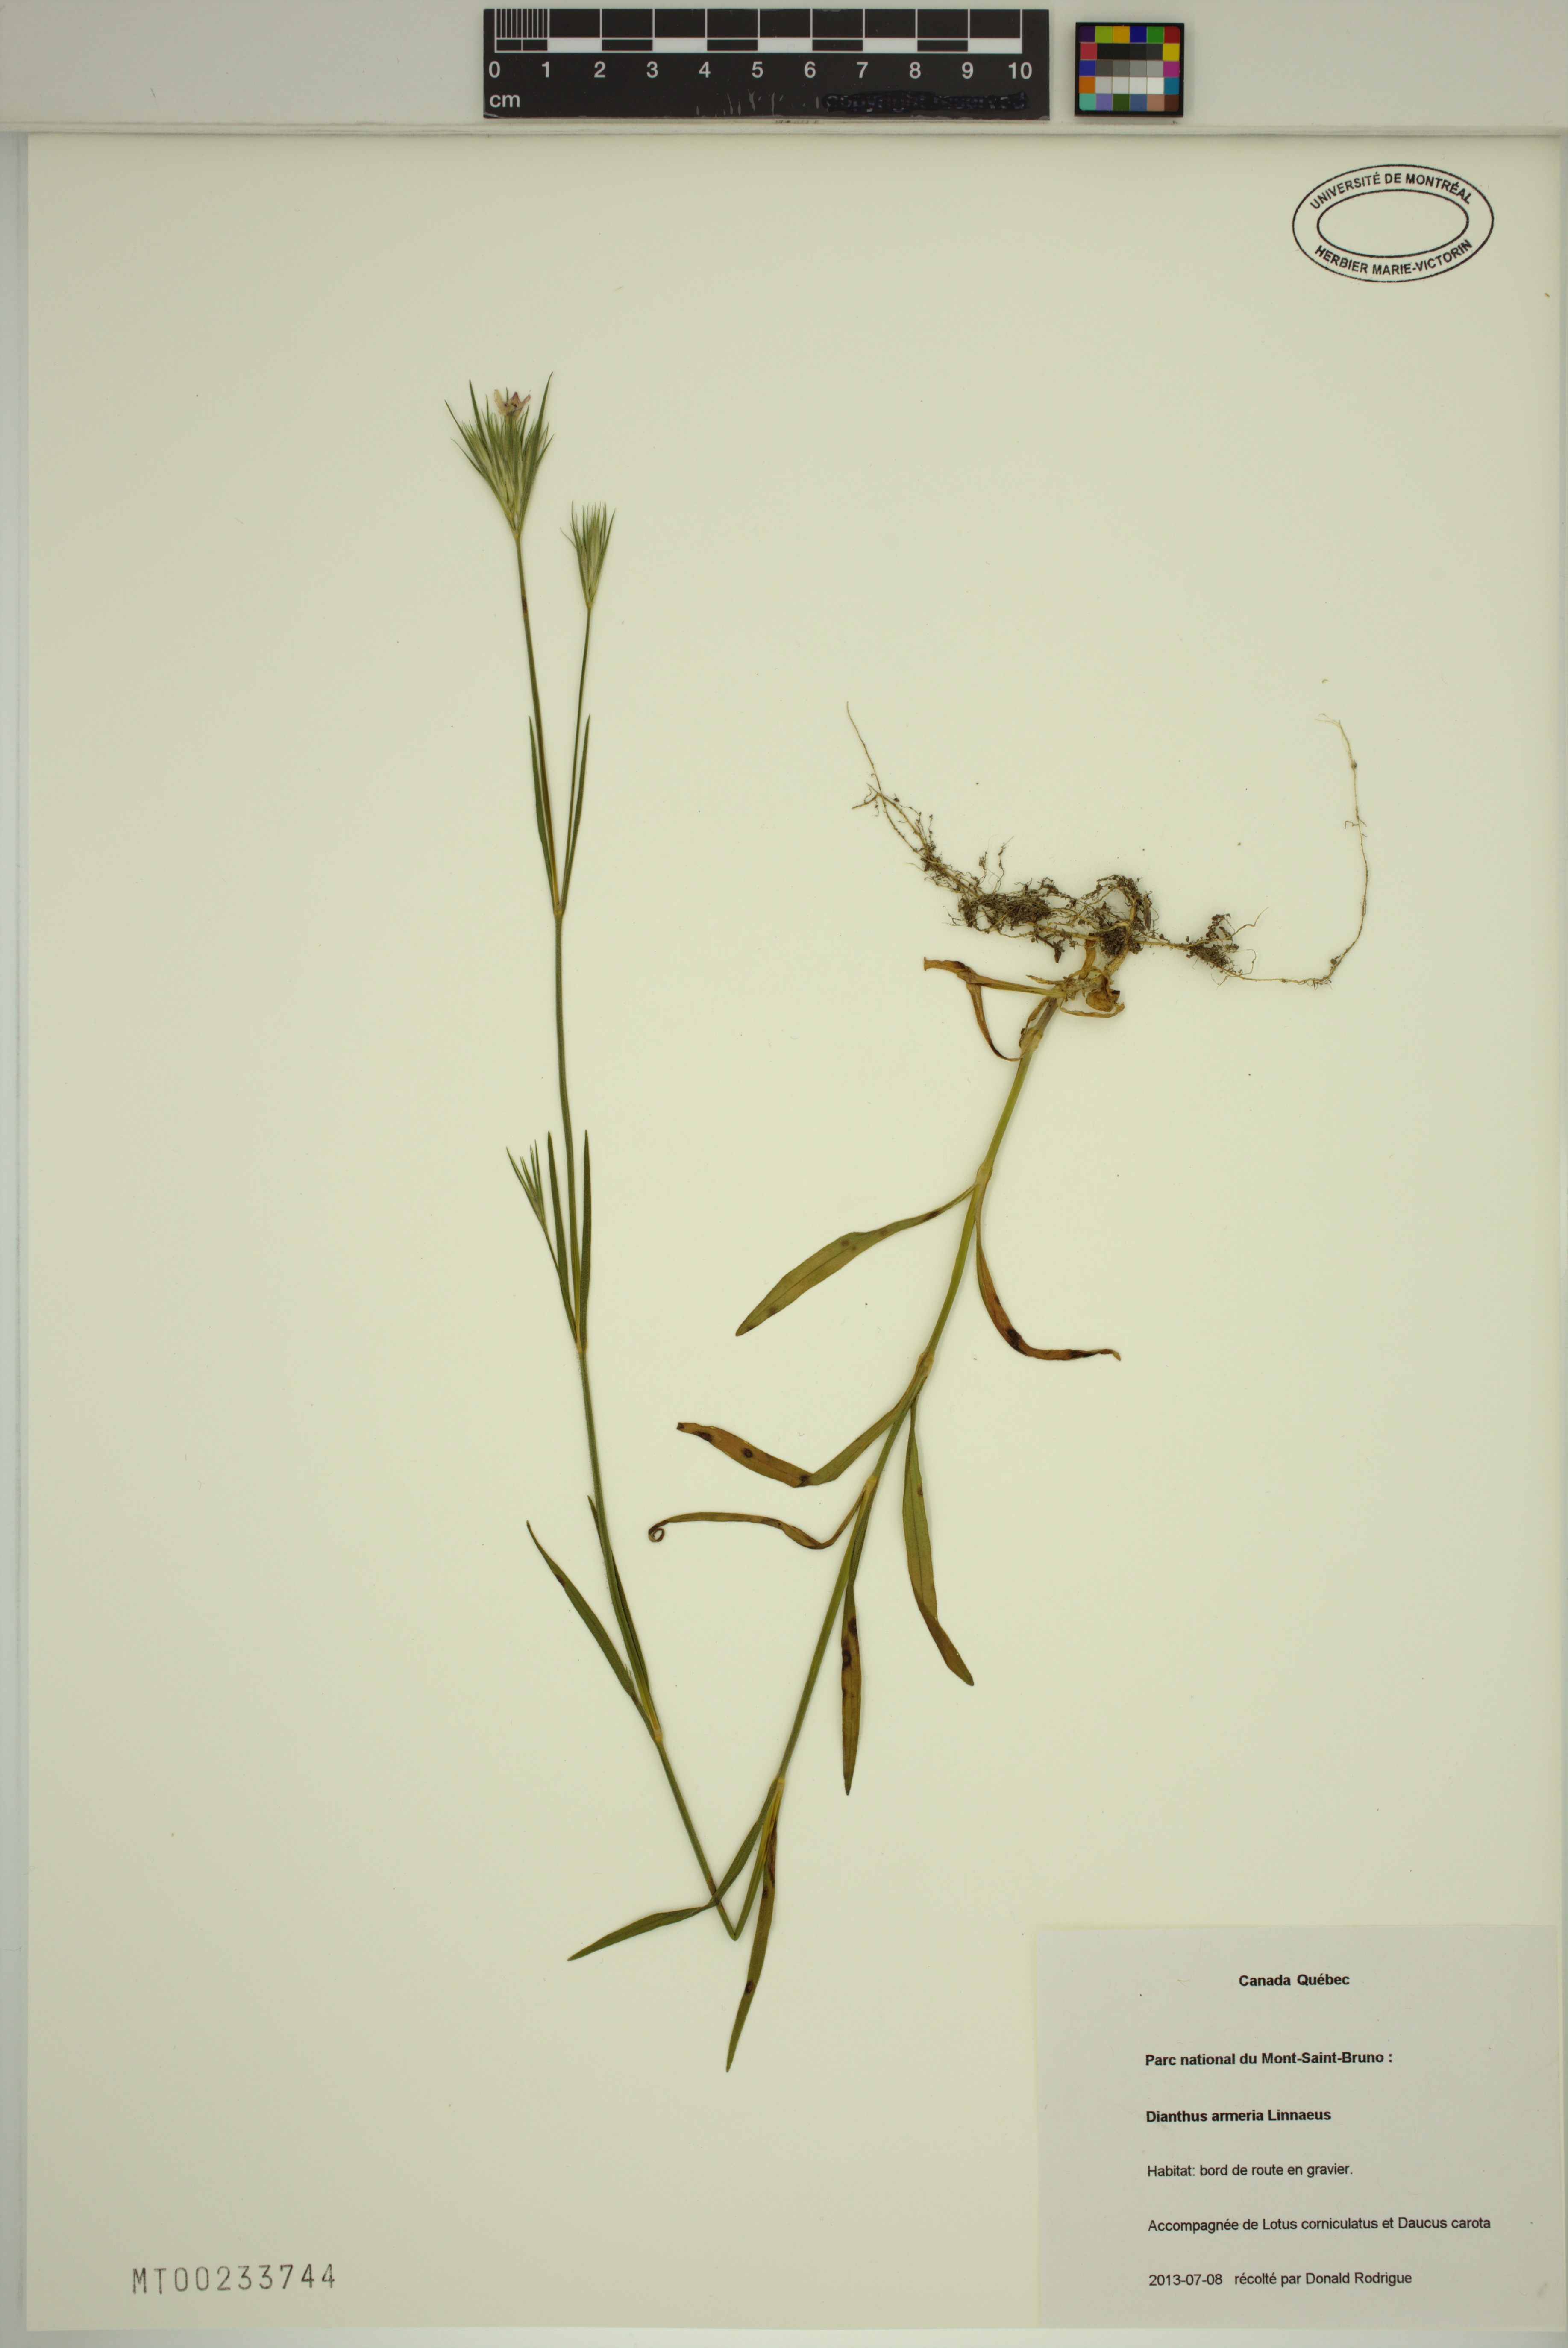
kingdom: Plantae
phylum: Tracheophyta
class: Magnoliopsida
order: Caryophyllales
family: Caryophyllaceae
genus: Dianthus
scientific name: Dianthus armeria
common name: Deptford pink
